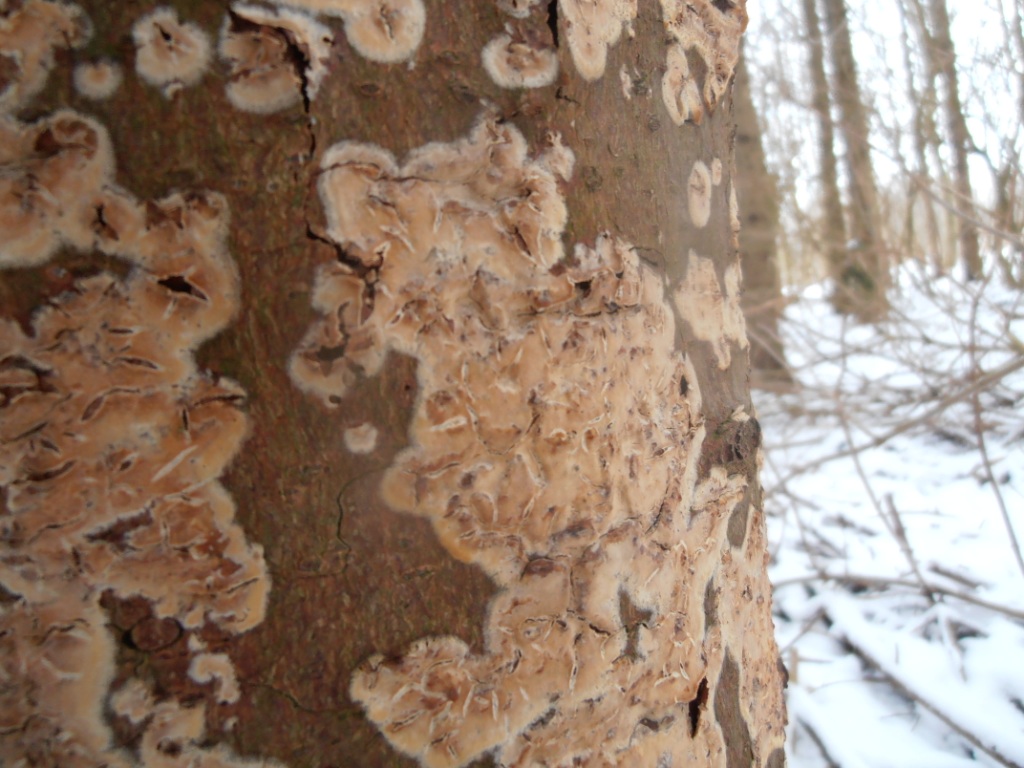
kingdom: Fungi
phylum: Basidiomycota
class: Agaricomycetes
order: Agaricales
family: Physalacriaceae
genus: Cylindrobasidium
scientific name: Cylindrobasidium evolvens
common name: sprækkehinde
